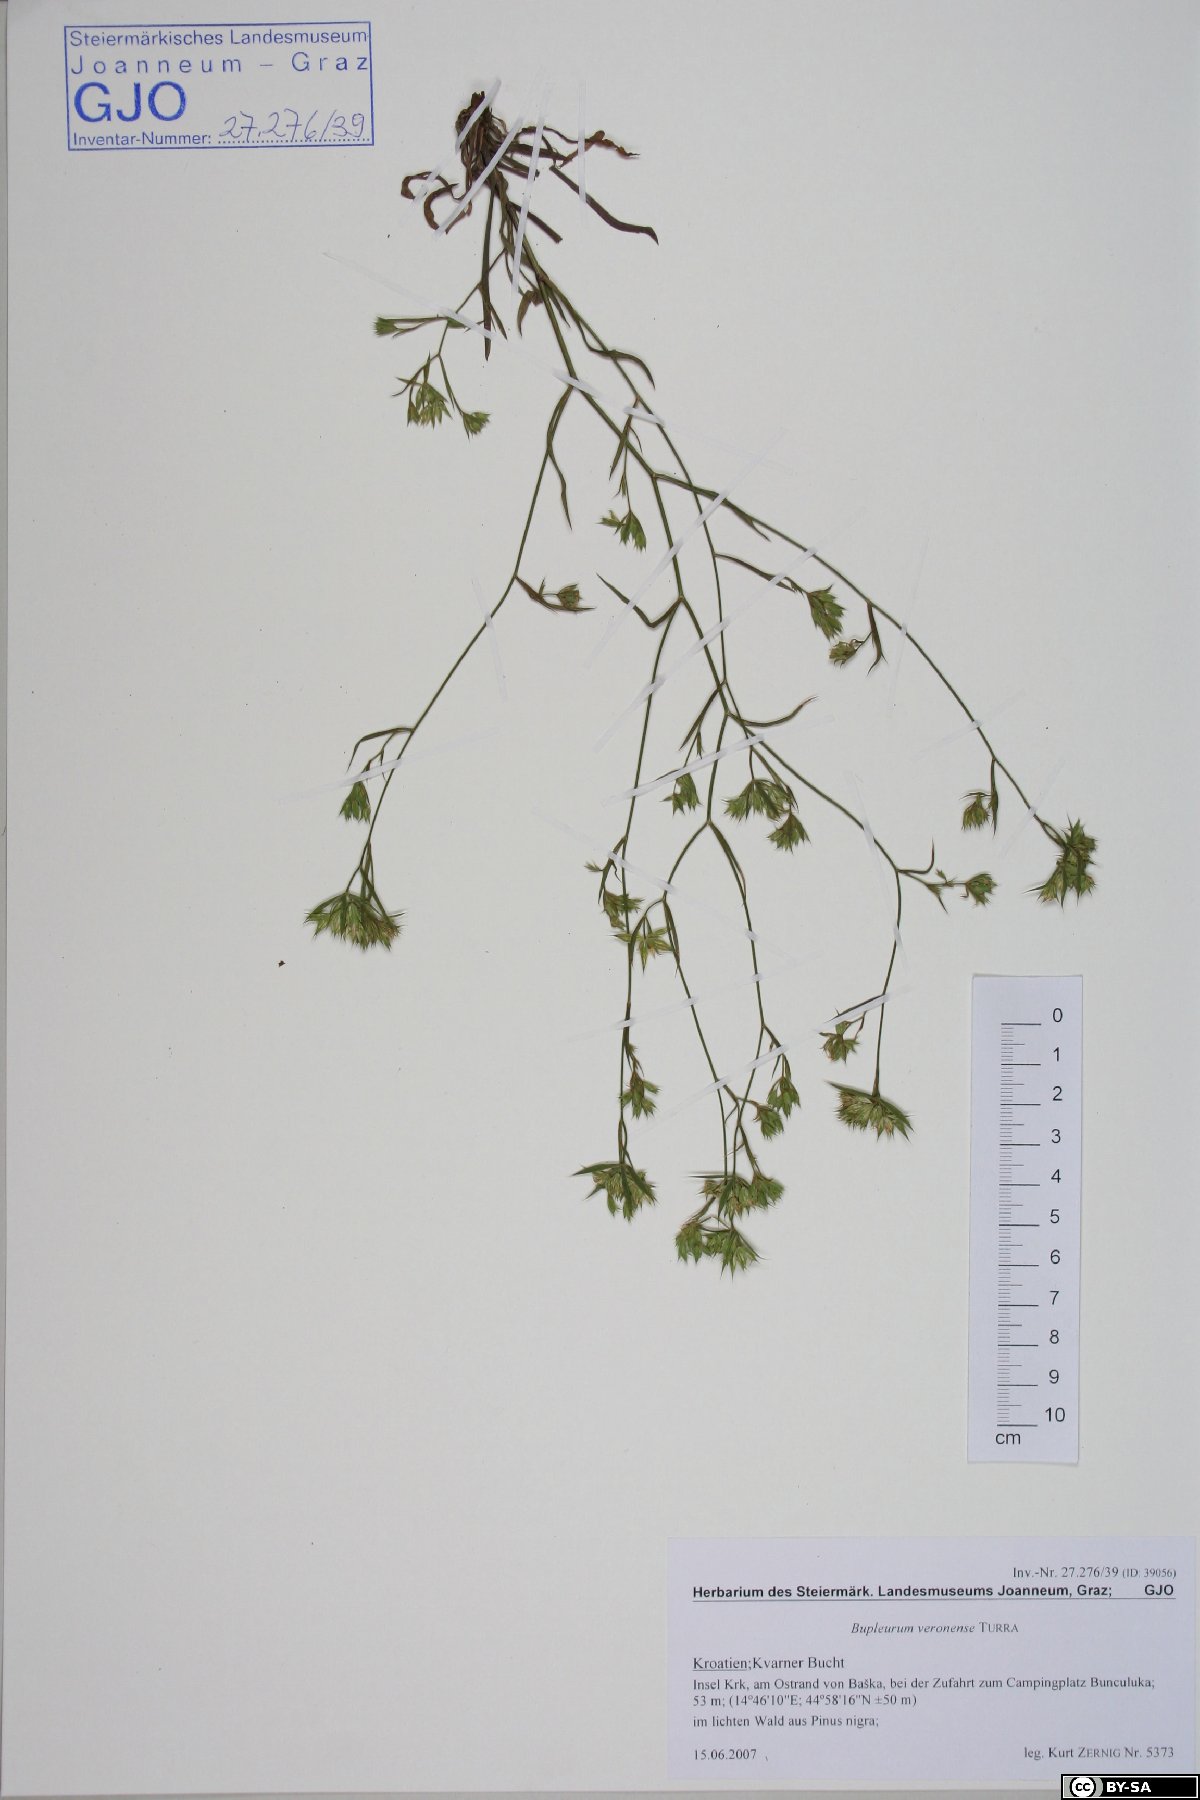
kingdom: Plantae
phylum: Tracheophyta
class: Magnoliopsida
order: Apiales
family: Apiaceae
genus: Bupleurum
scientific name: Bupleurum veronense
